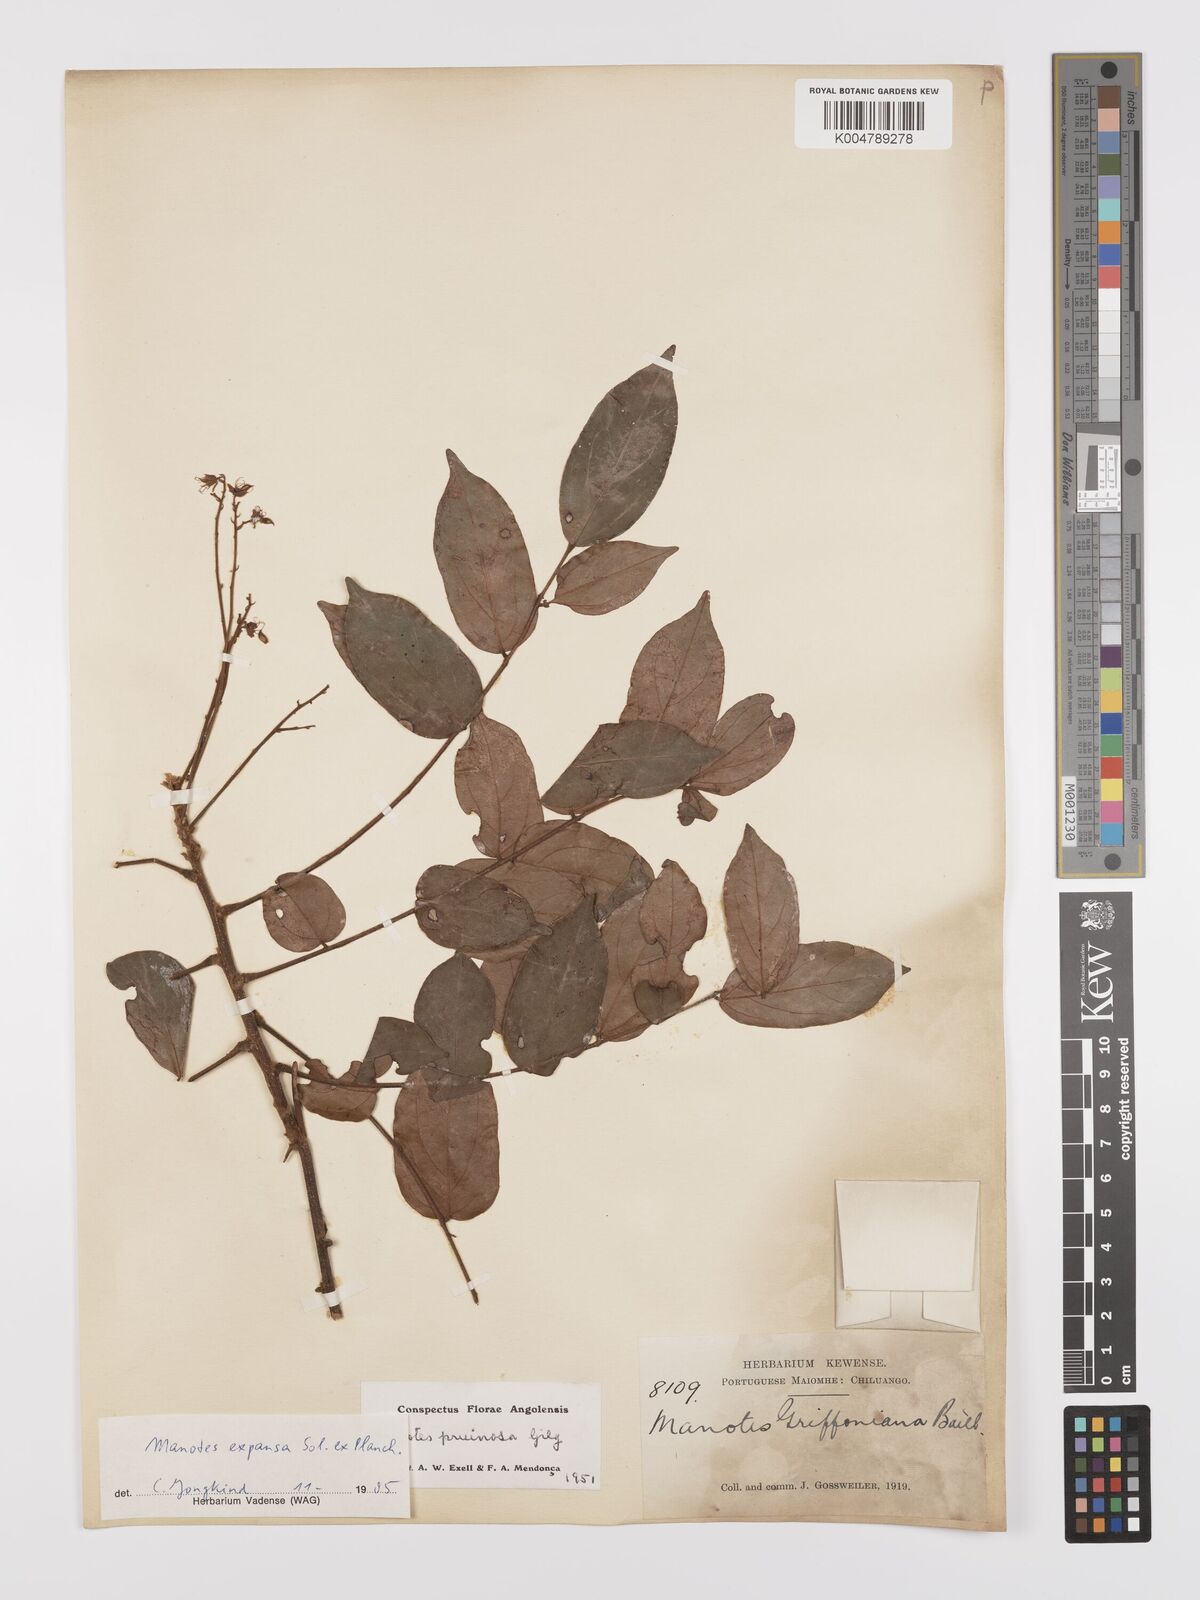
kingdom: Plantae
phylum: Tracheophyta
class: Magnoliopsida
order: Oxalidales
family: Connaraceae
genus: Manotes
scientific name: Manotes expansa
